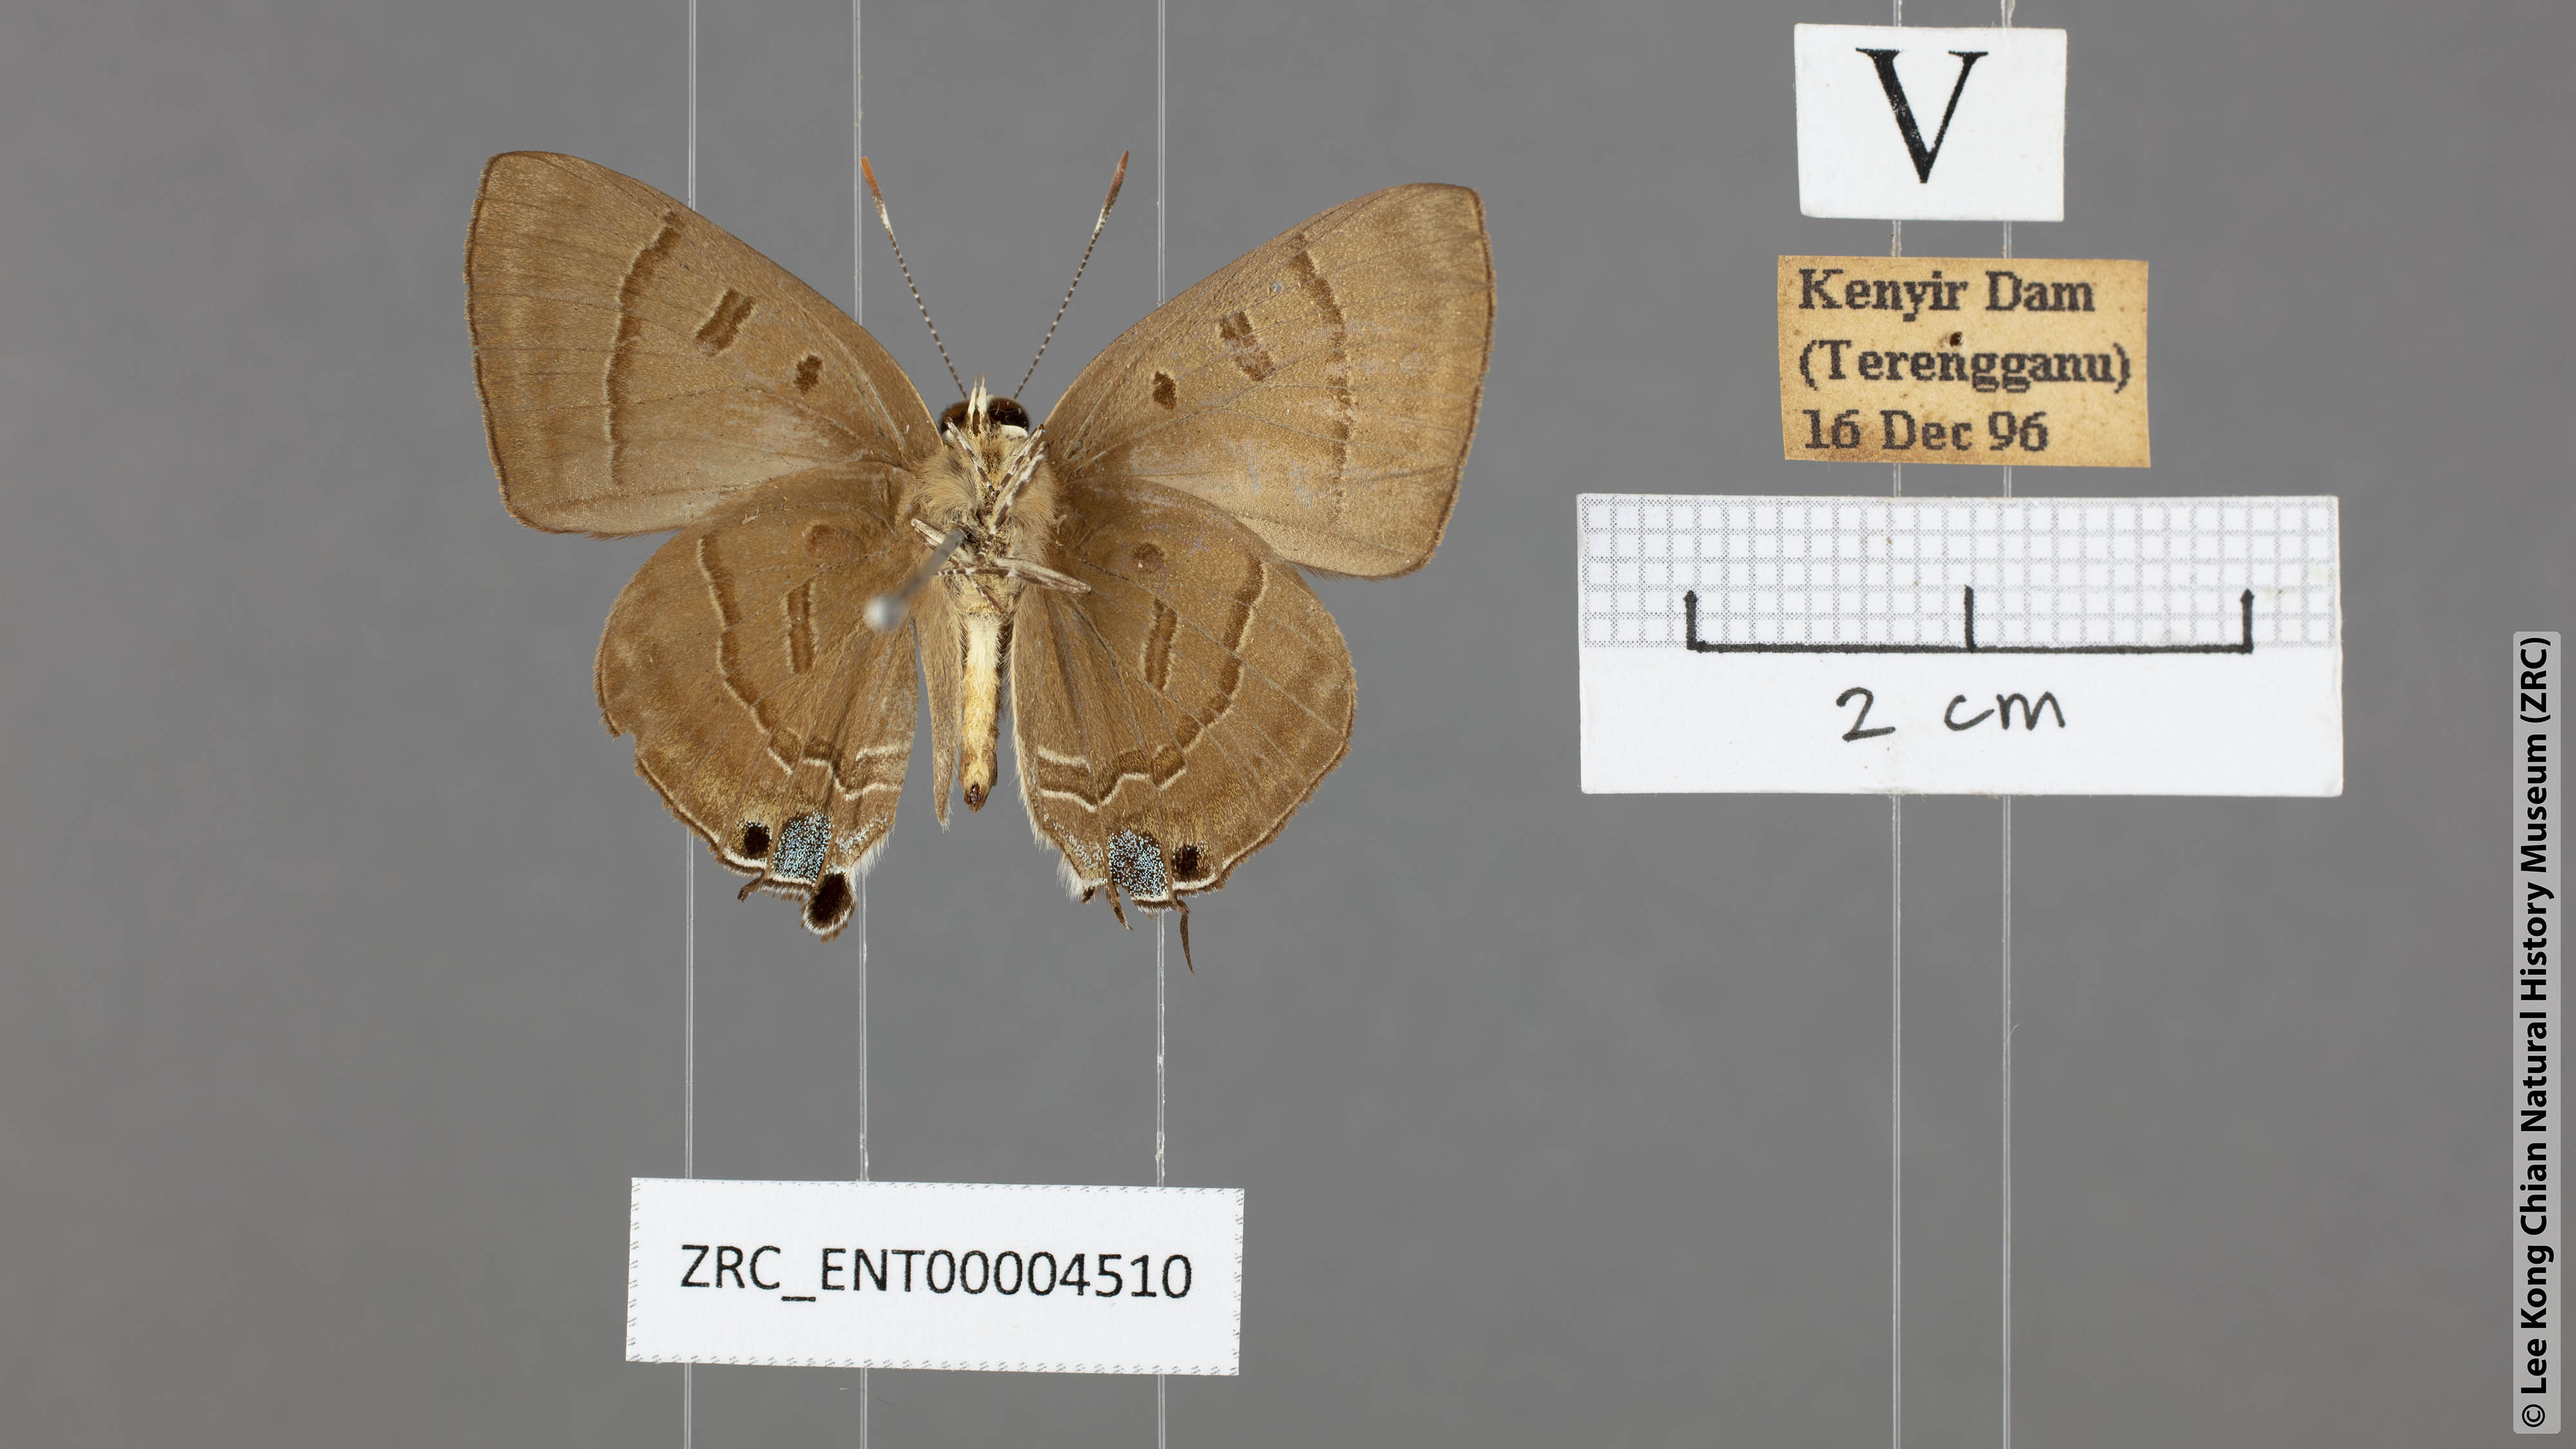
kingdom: Animalia
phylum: Arthropoda
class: Insecta
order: Lepidoptera
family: Lycaenidae
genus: Rapala
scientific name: Rapala pheretima
